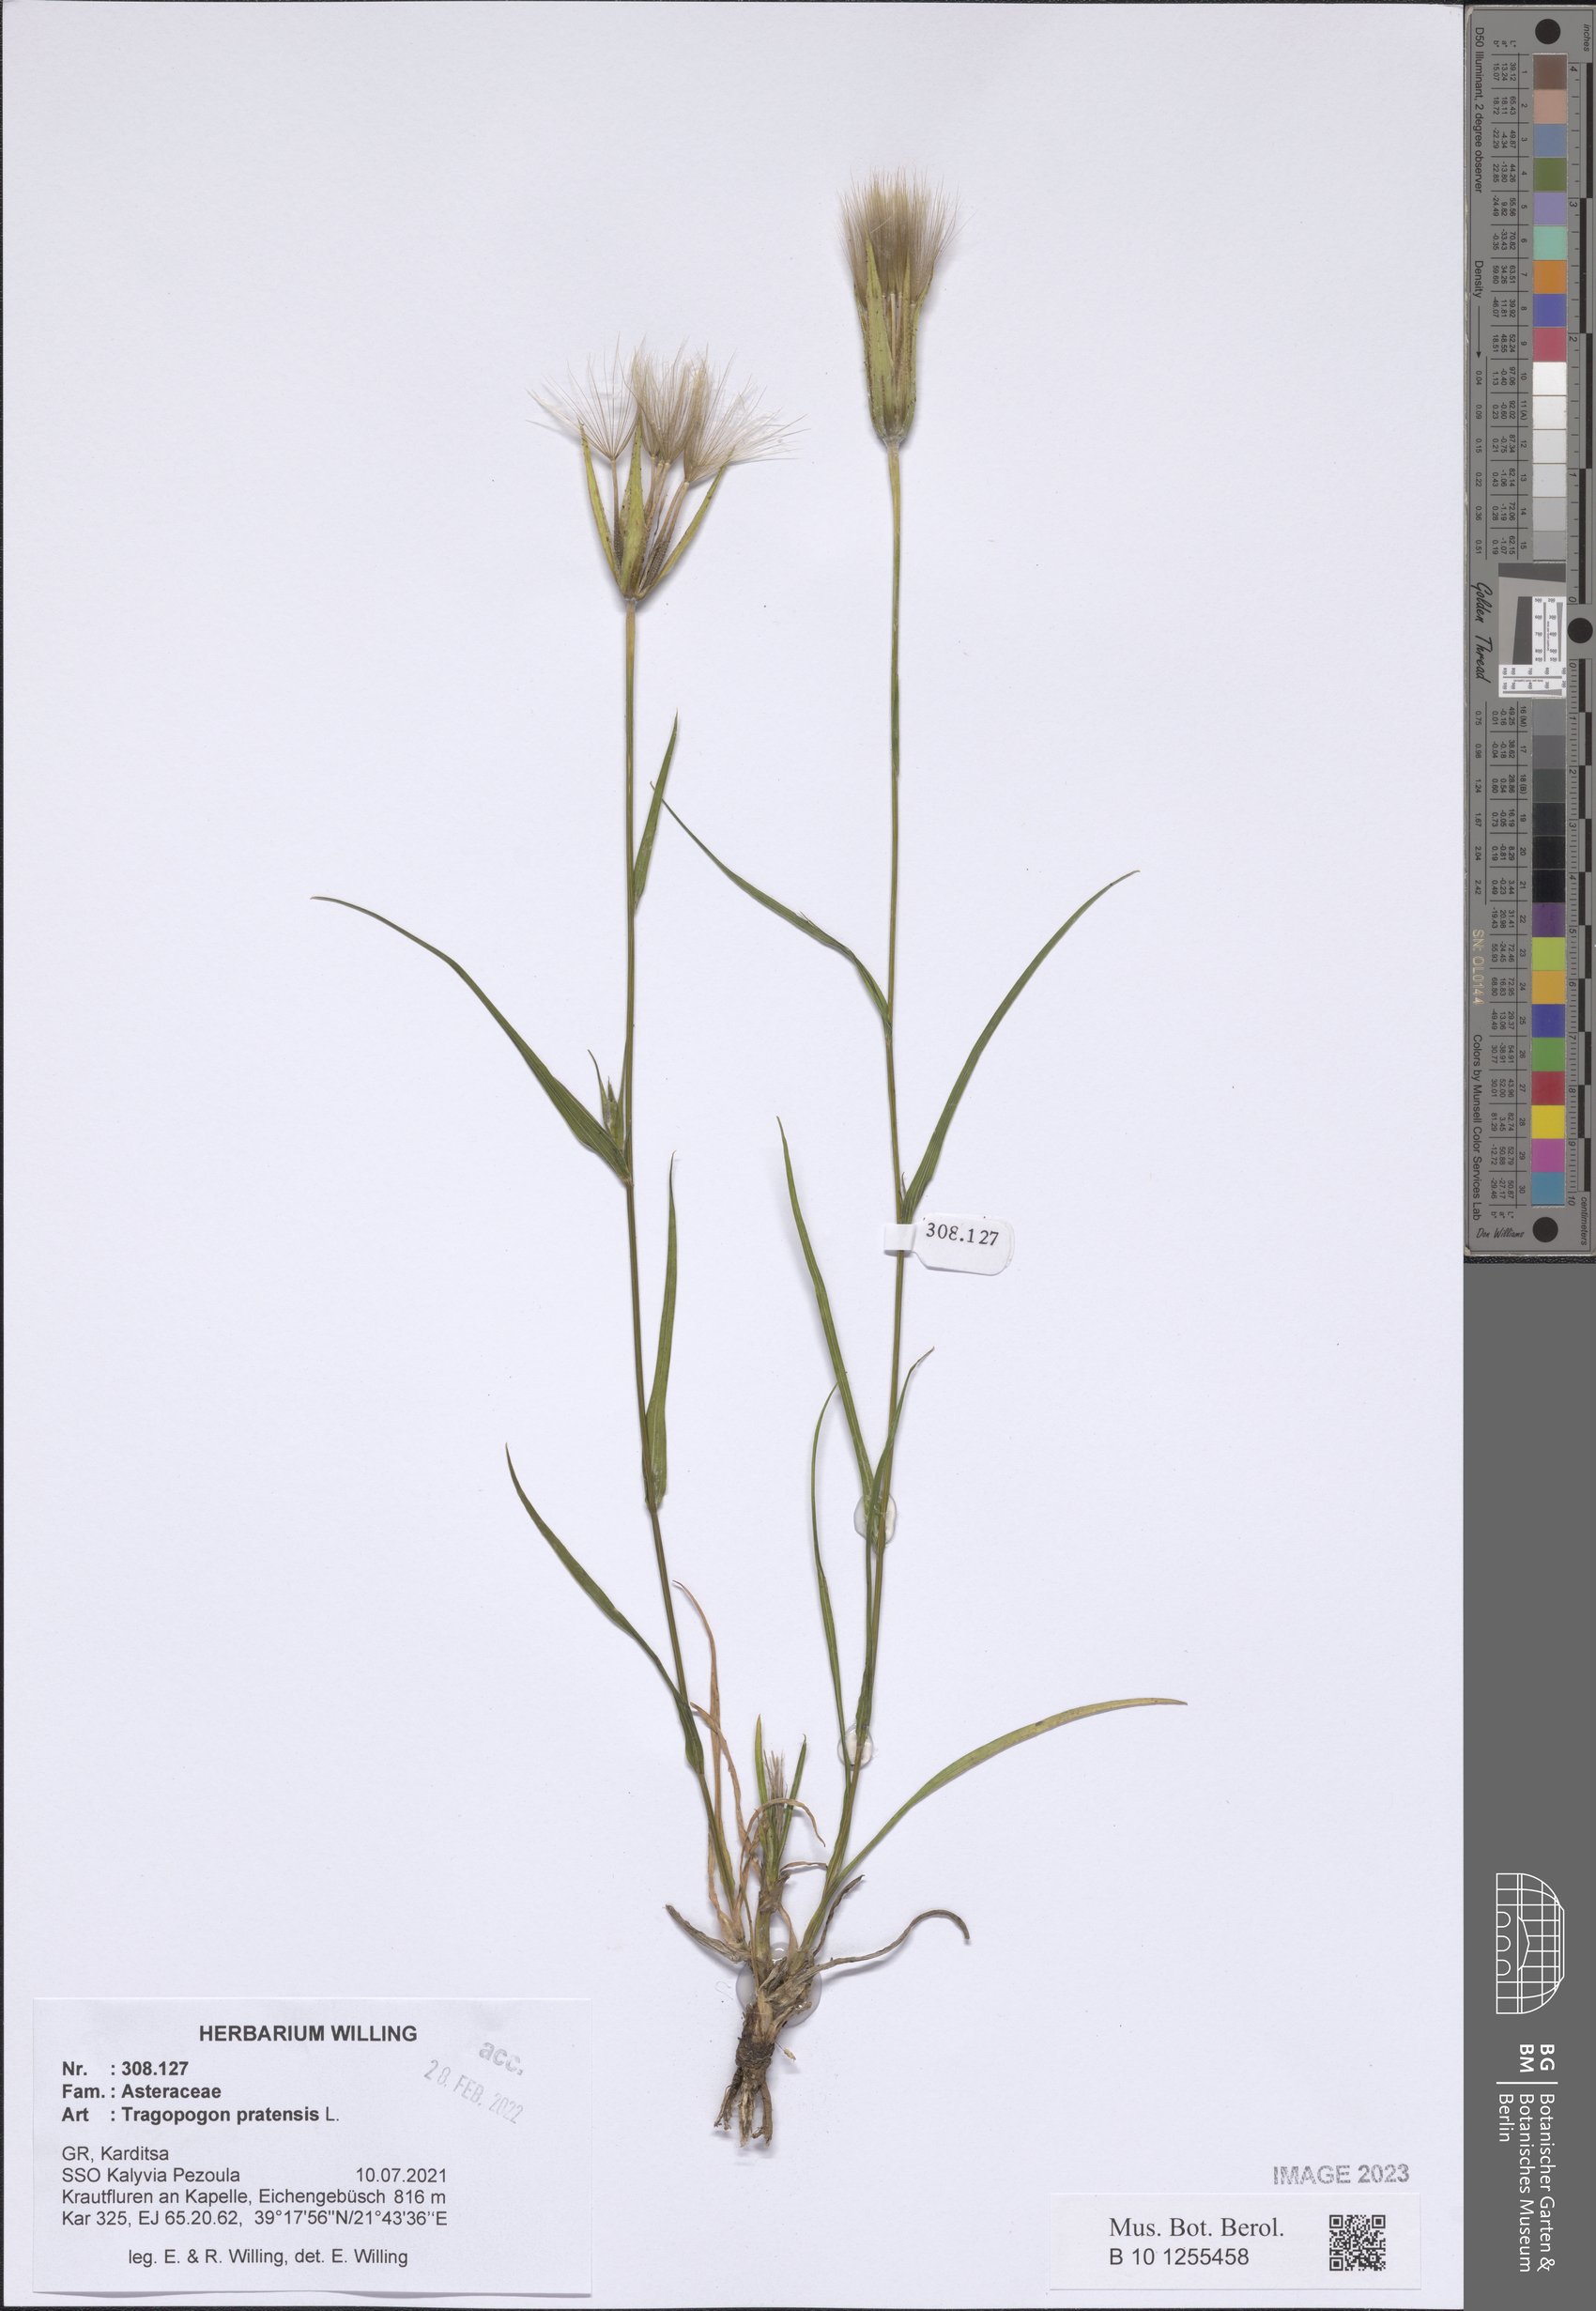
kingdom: Plantae
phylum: Tracheophyta
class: Magnoliopsida
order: Asterales
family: Asteraceae
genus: Tragopogon
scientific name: Tragopogon pratensis
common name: Goat's-beard
